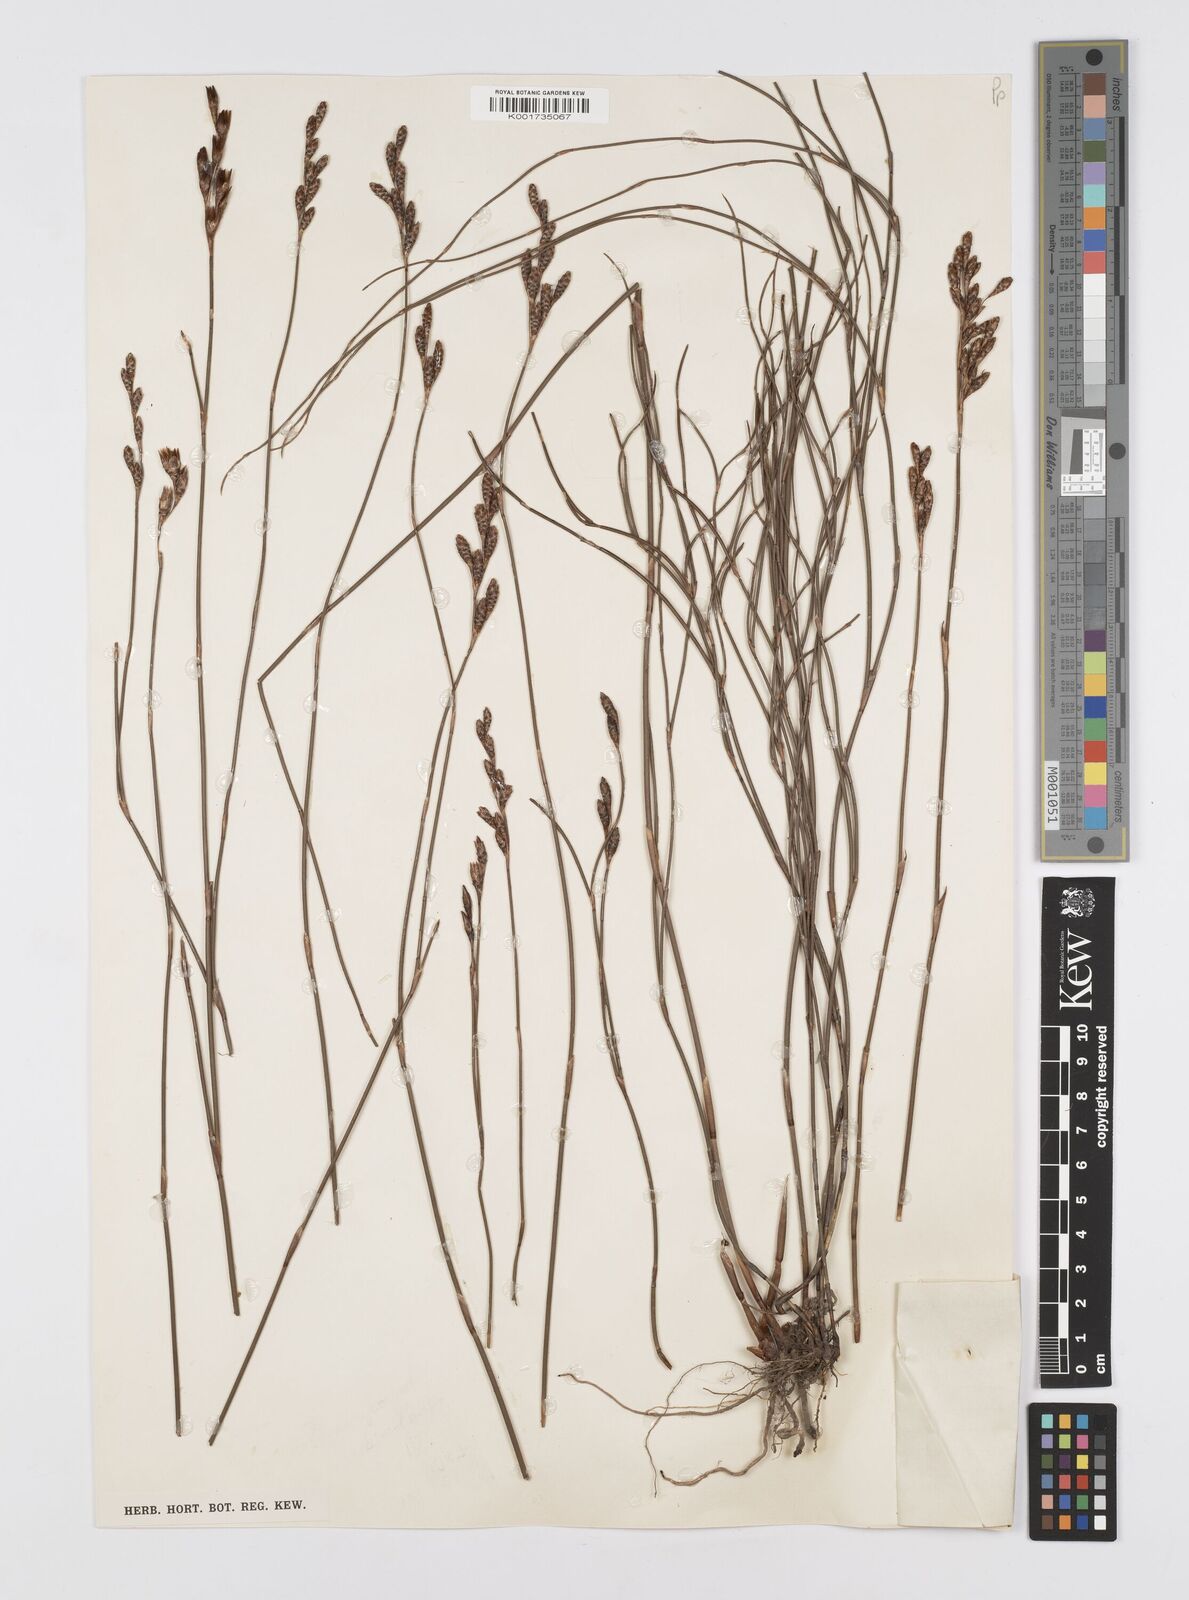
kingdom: Plantae
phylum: Tracheophyta
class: Liliopsida
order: Poales
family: Restionaceae
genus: Restio
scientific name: Restio cymosus
